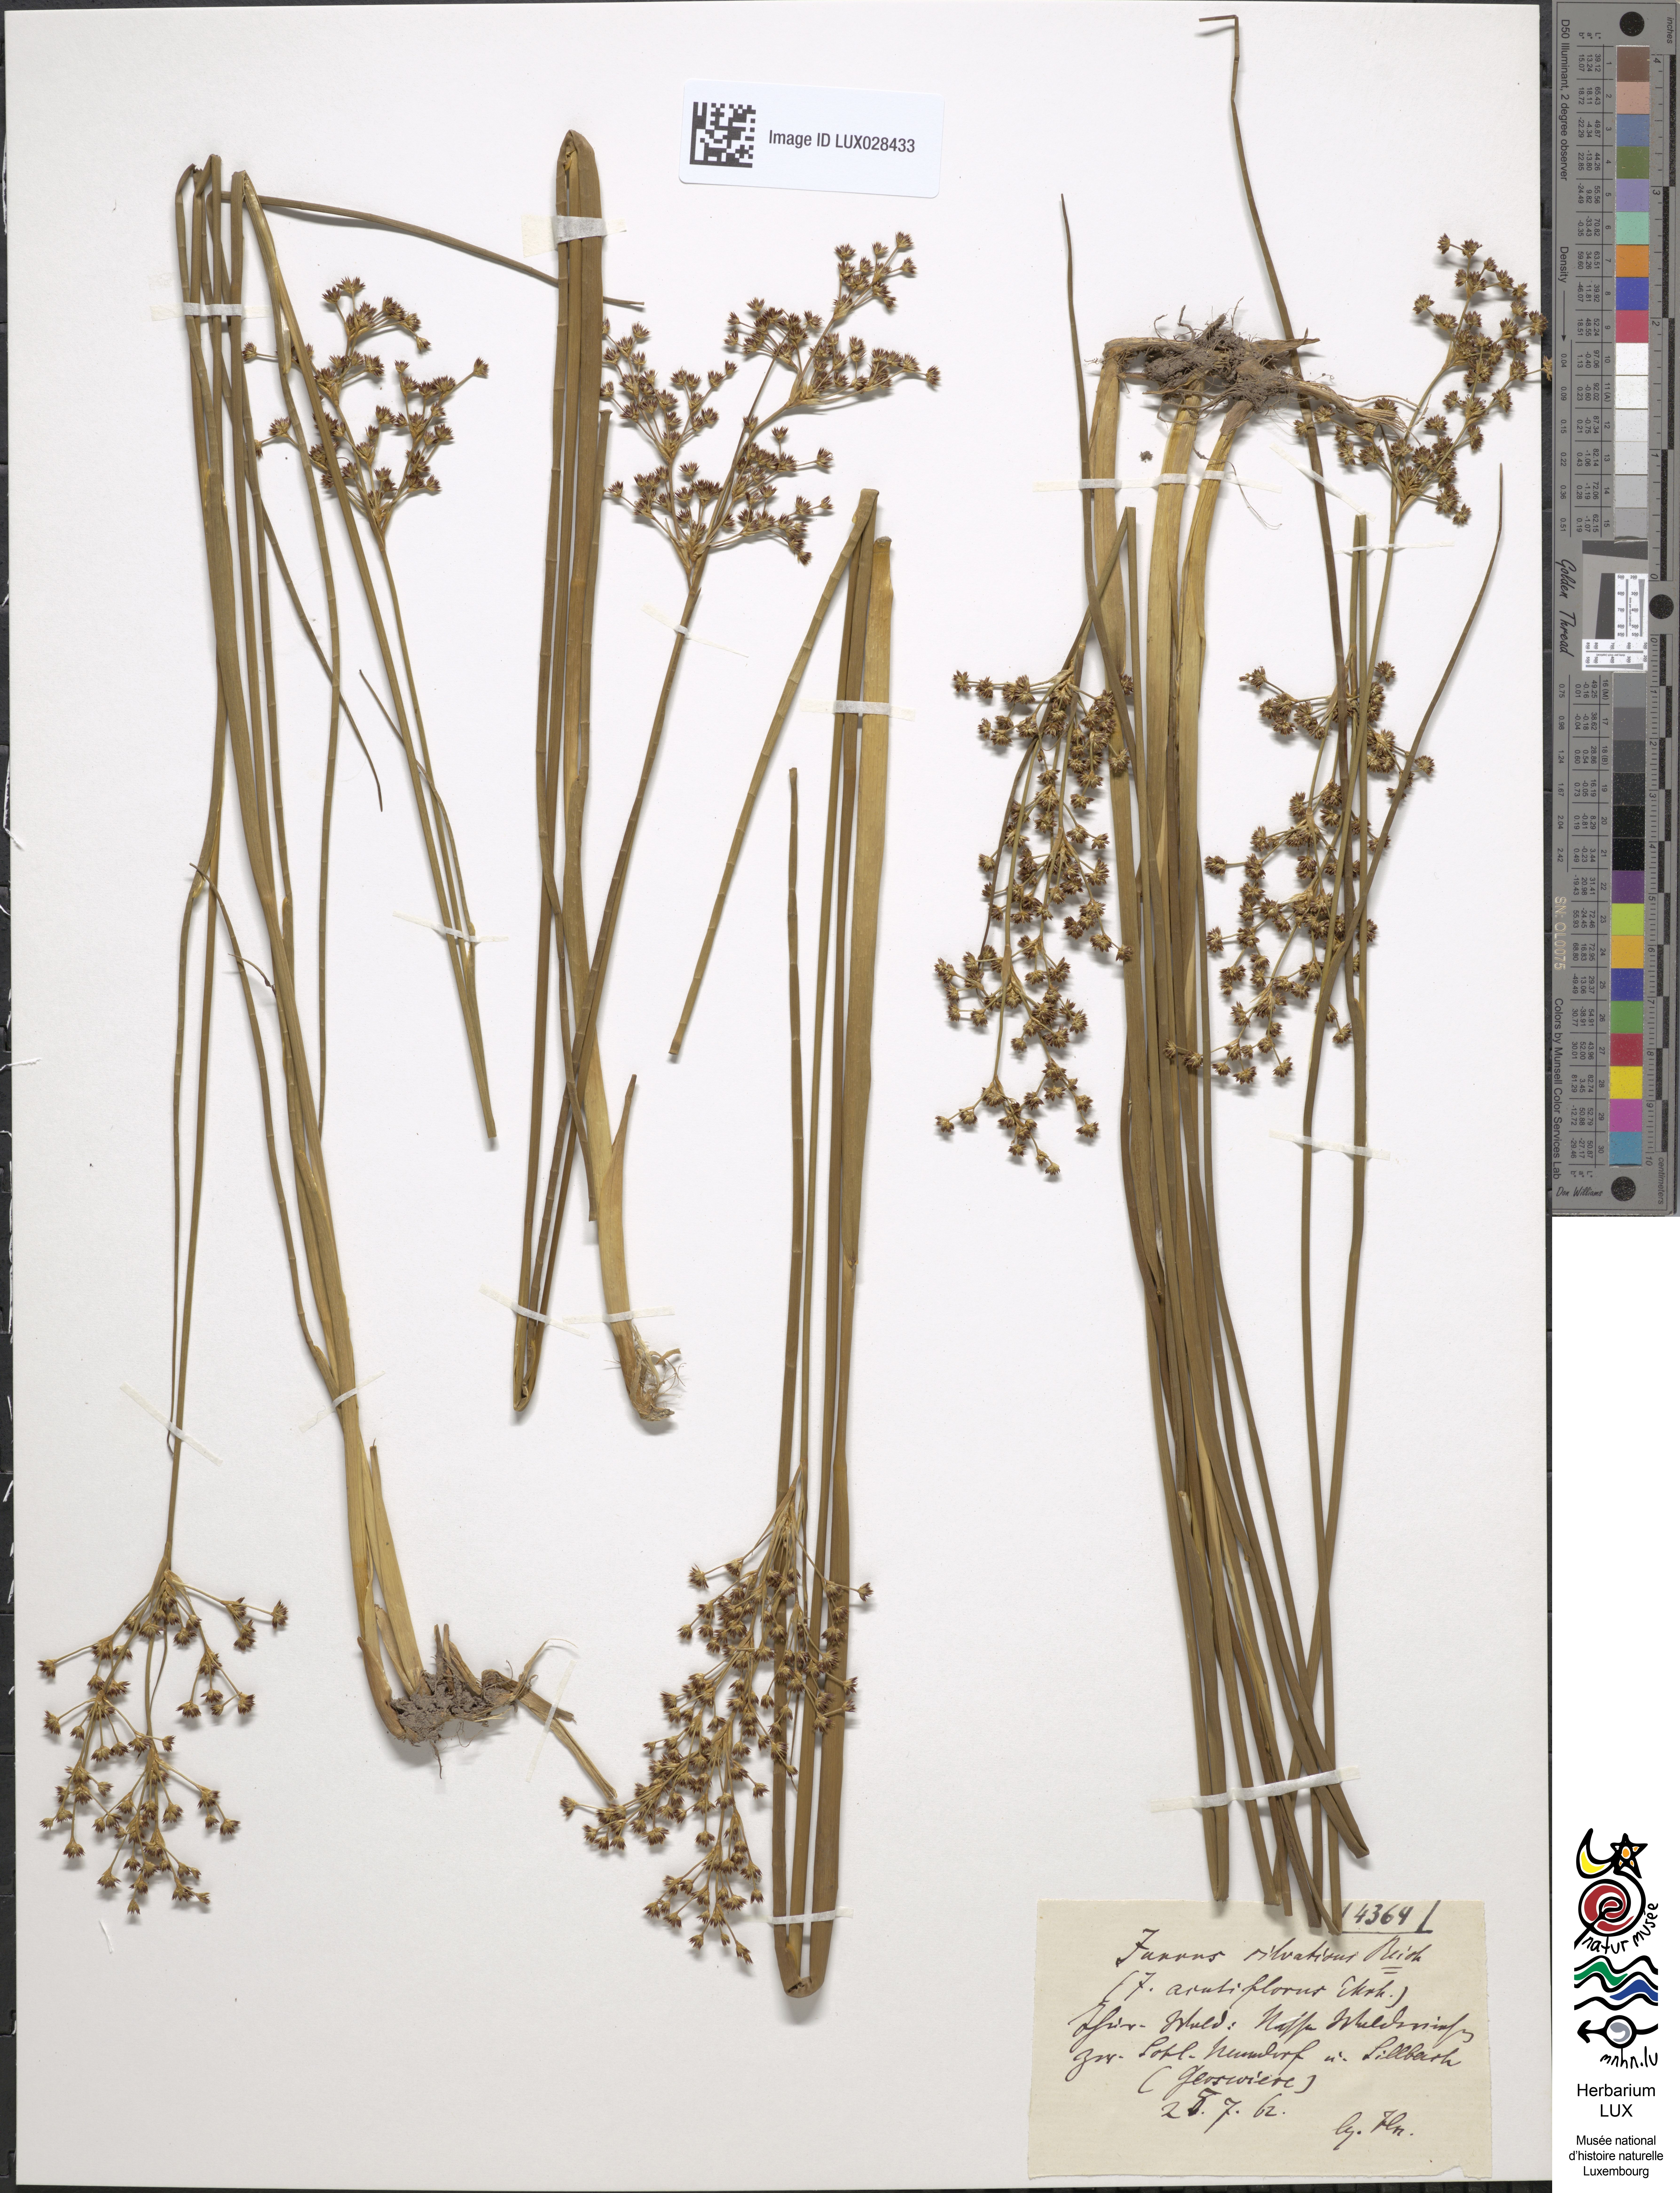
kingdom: Plantae
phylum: Tracheophyta
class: Liliopsida
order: Poales
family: Juncaceae
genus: Juncus
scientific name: Juncus acutiflorus
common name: Sharp-flowered rush
